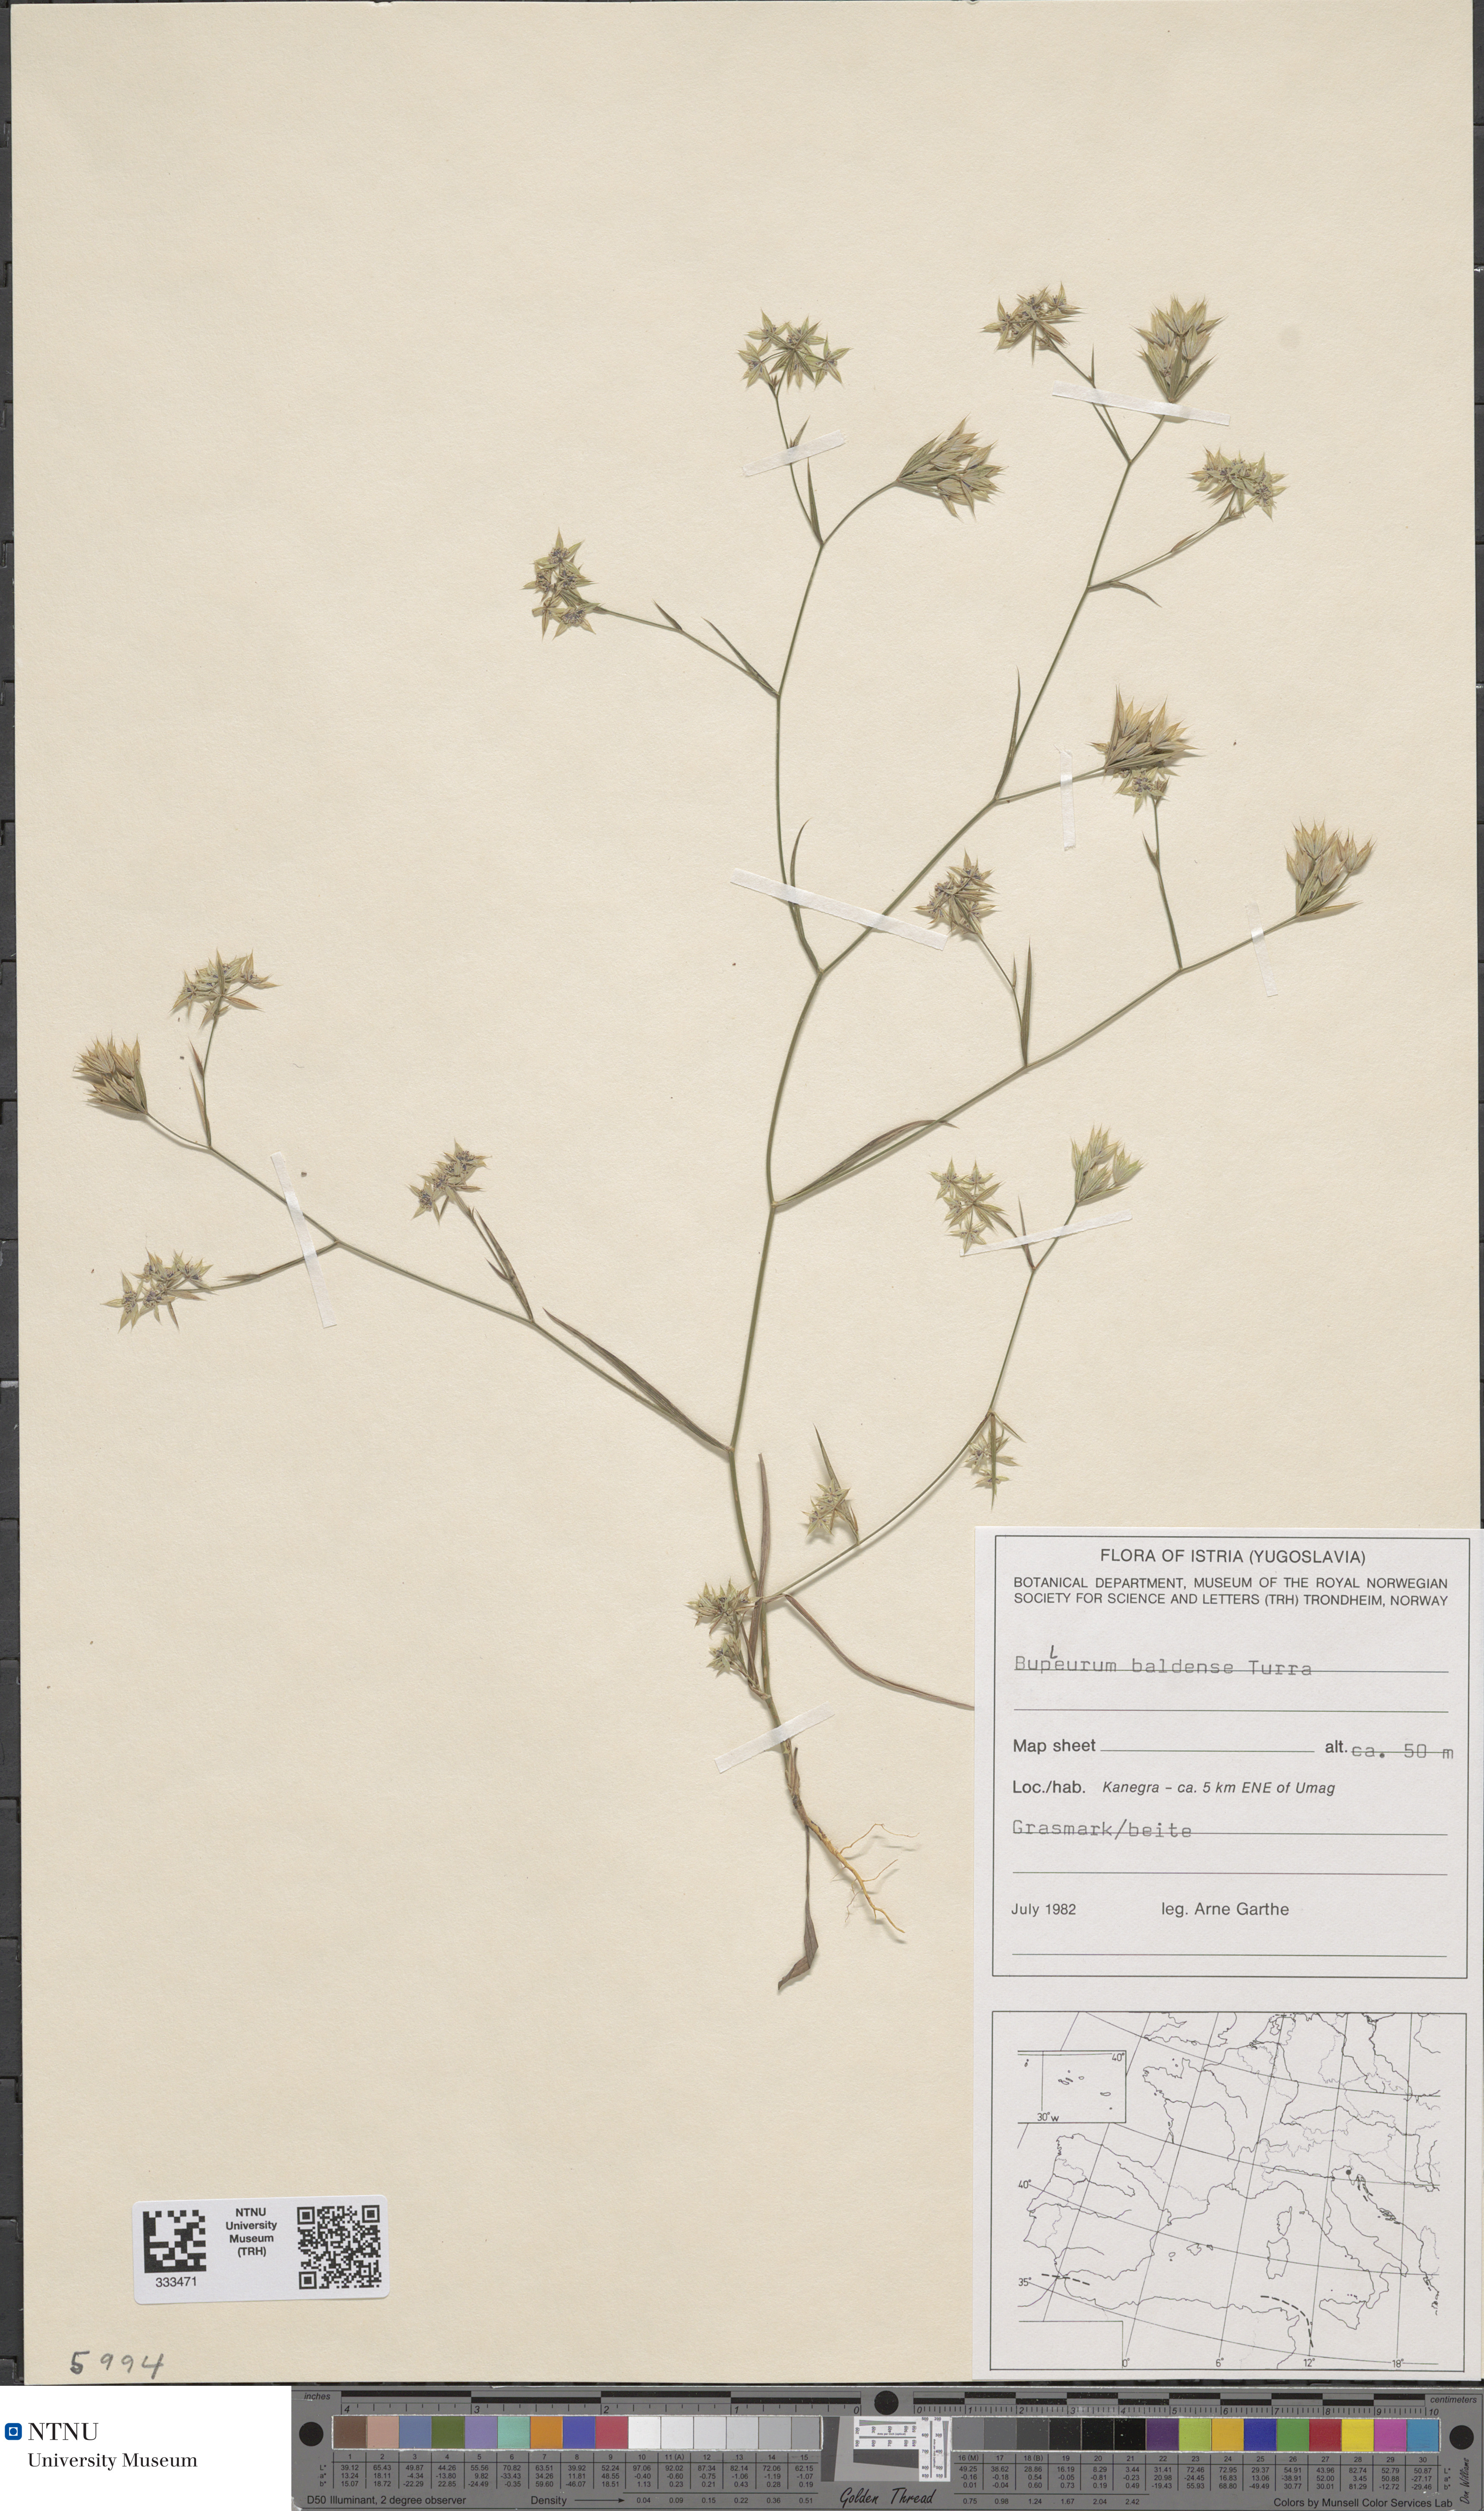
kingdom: Plantae
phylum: Tracheophyta
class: Magnoliopsida
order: Apiales
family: Apiaceae
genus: Bupleurum
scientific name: Bupleurum baldense
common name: Small hare's-ear
